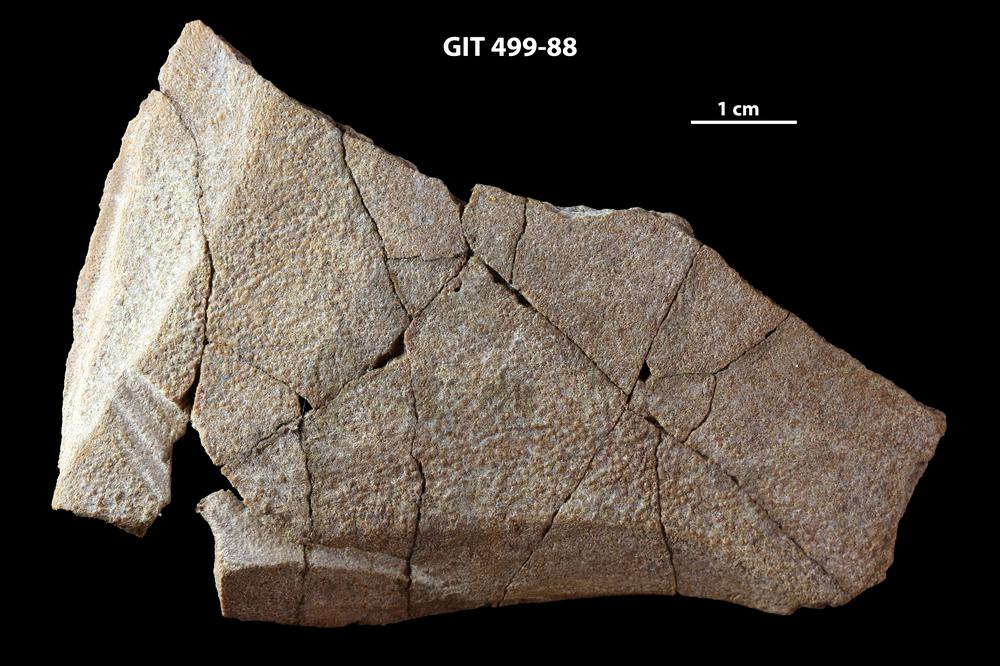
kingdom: Animalia
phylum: Chordata
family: Holoptychiidae
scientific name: Holoptychiidae
